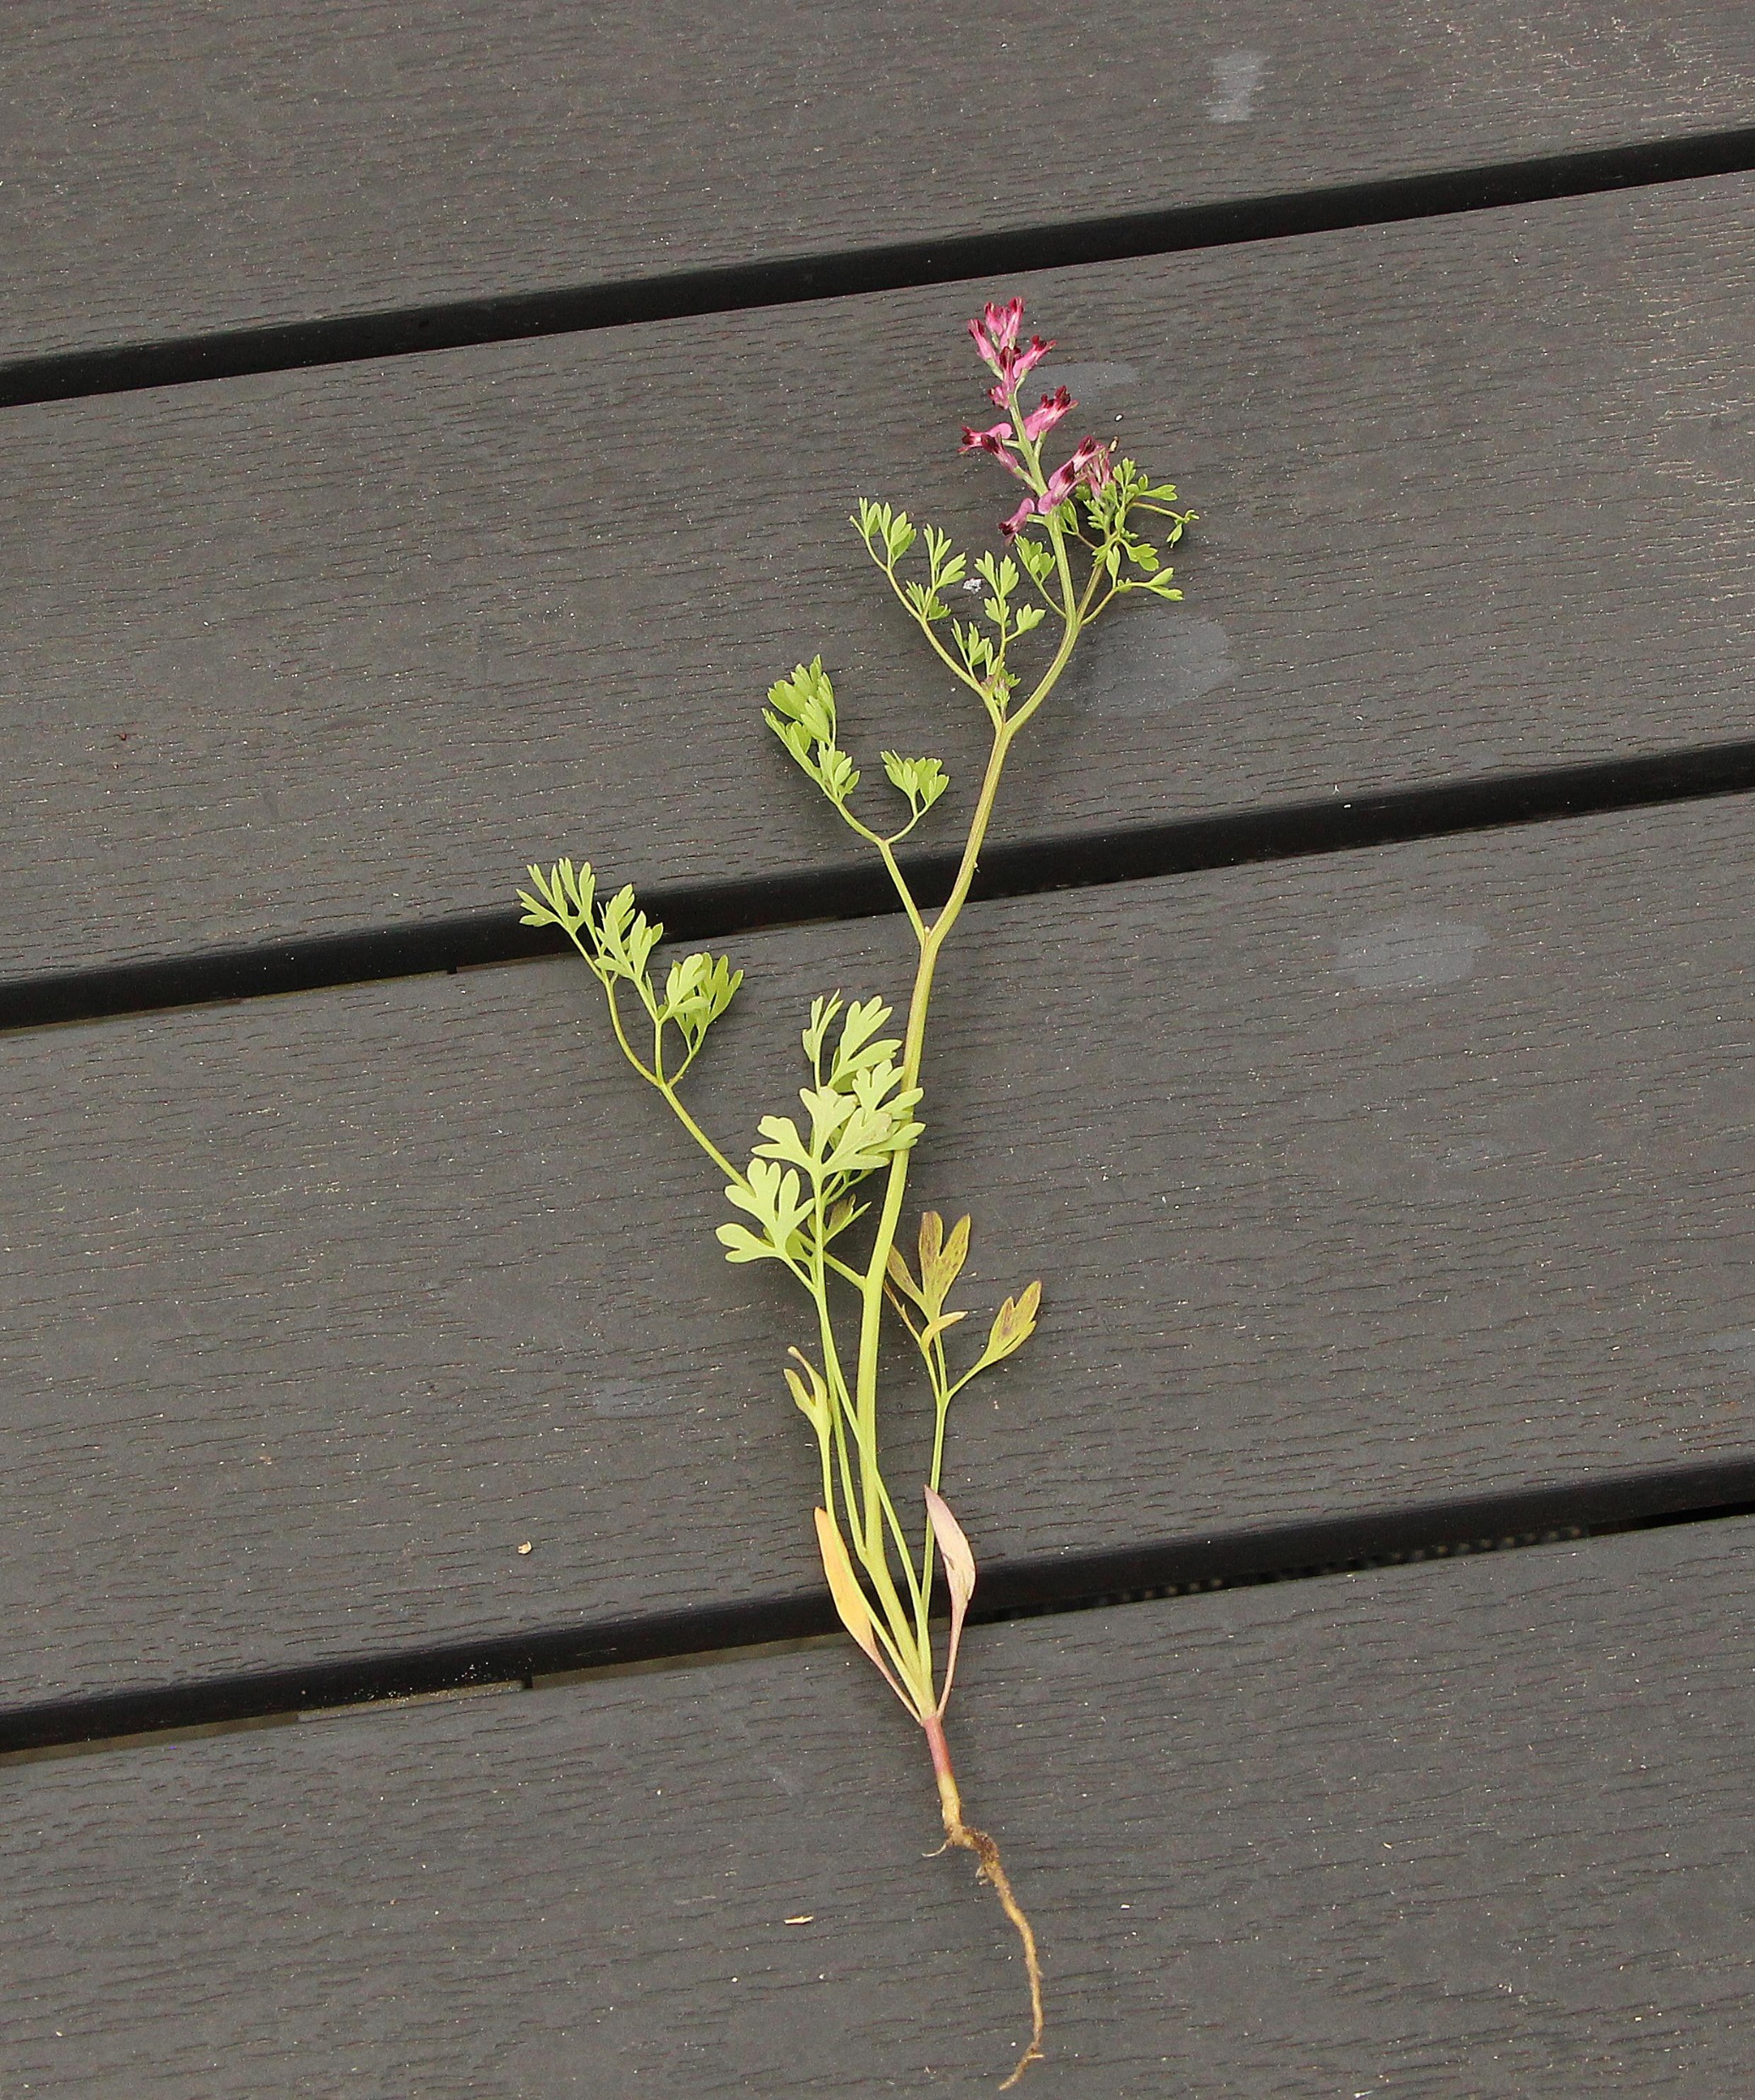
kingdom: Plantae
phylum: Tracheophyta
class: Magnoliopsida
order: Ranunculales
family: Papaveraceae
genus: Fumaria
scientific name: Fumaria officinalis
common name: Læge-jordrøg
